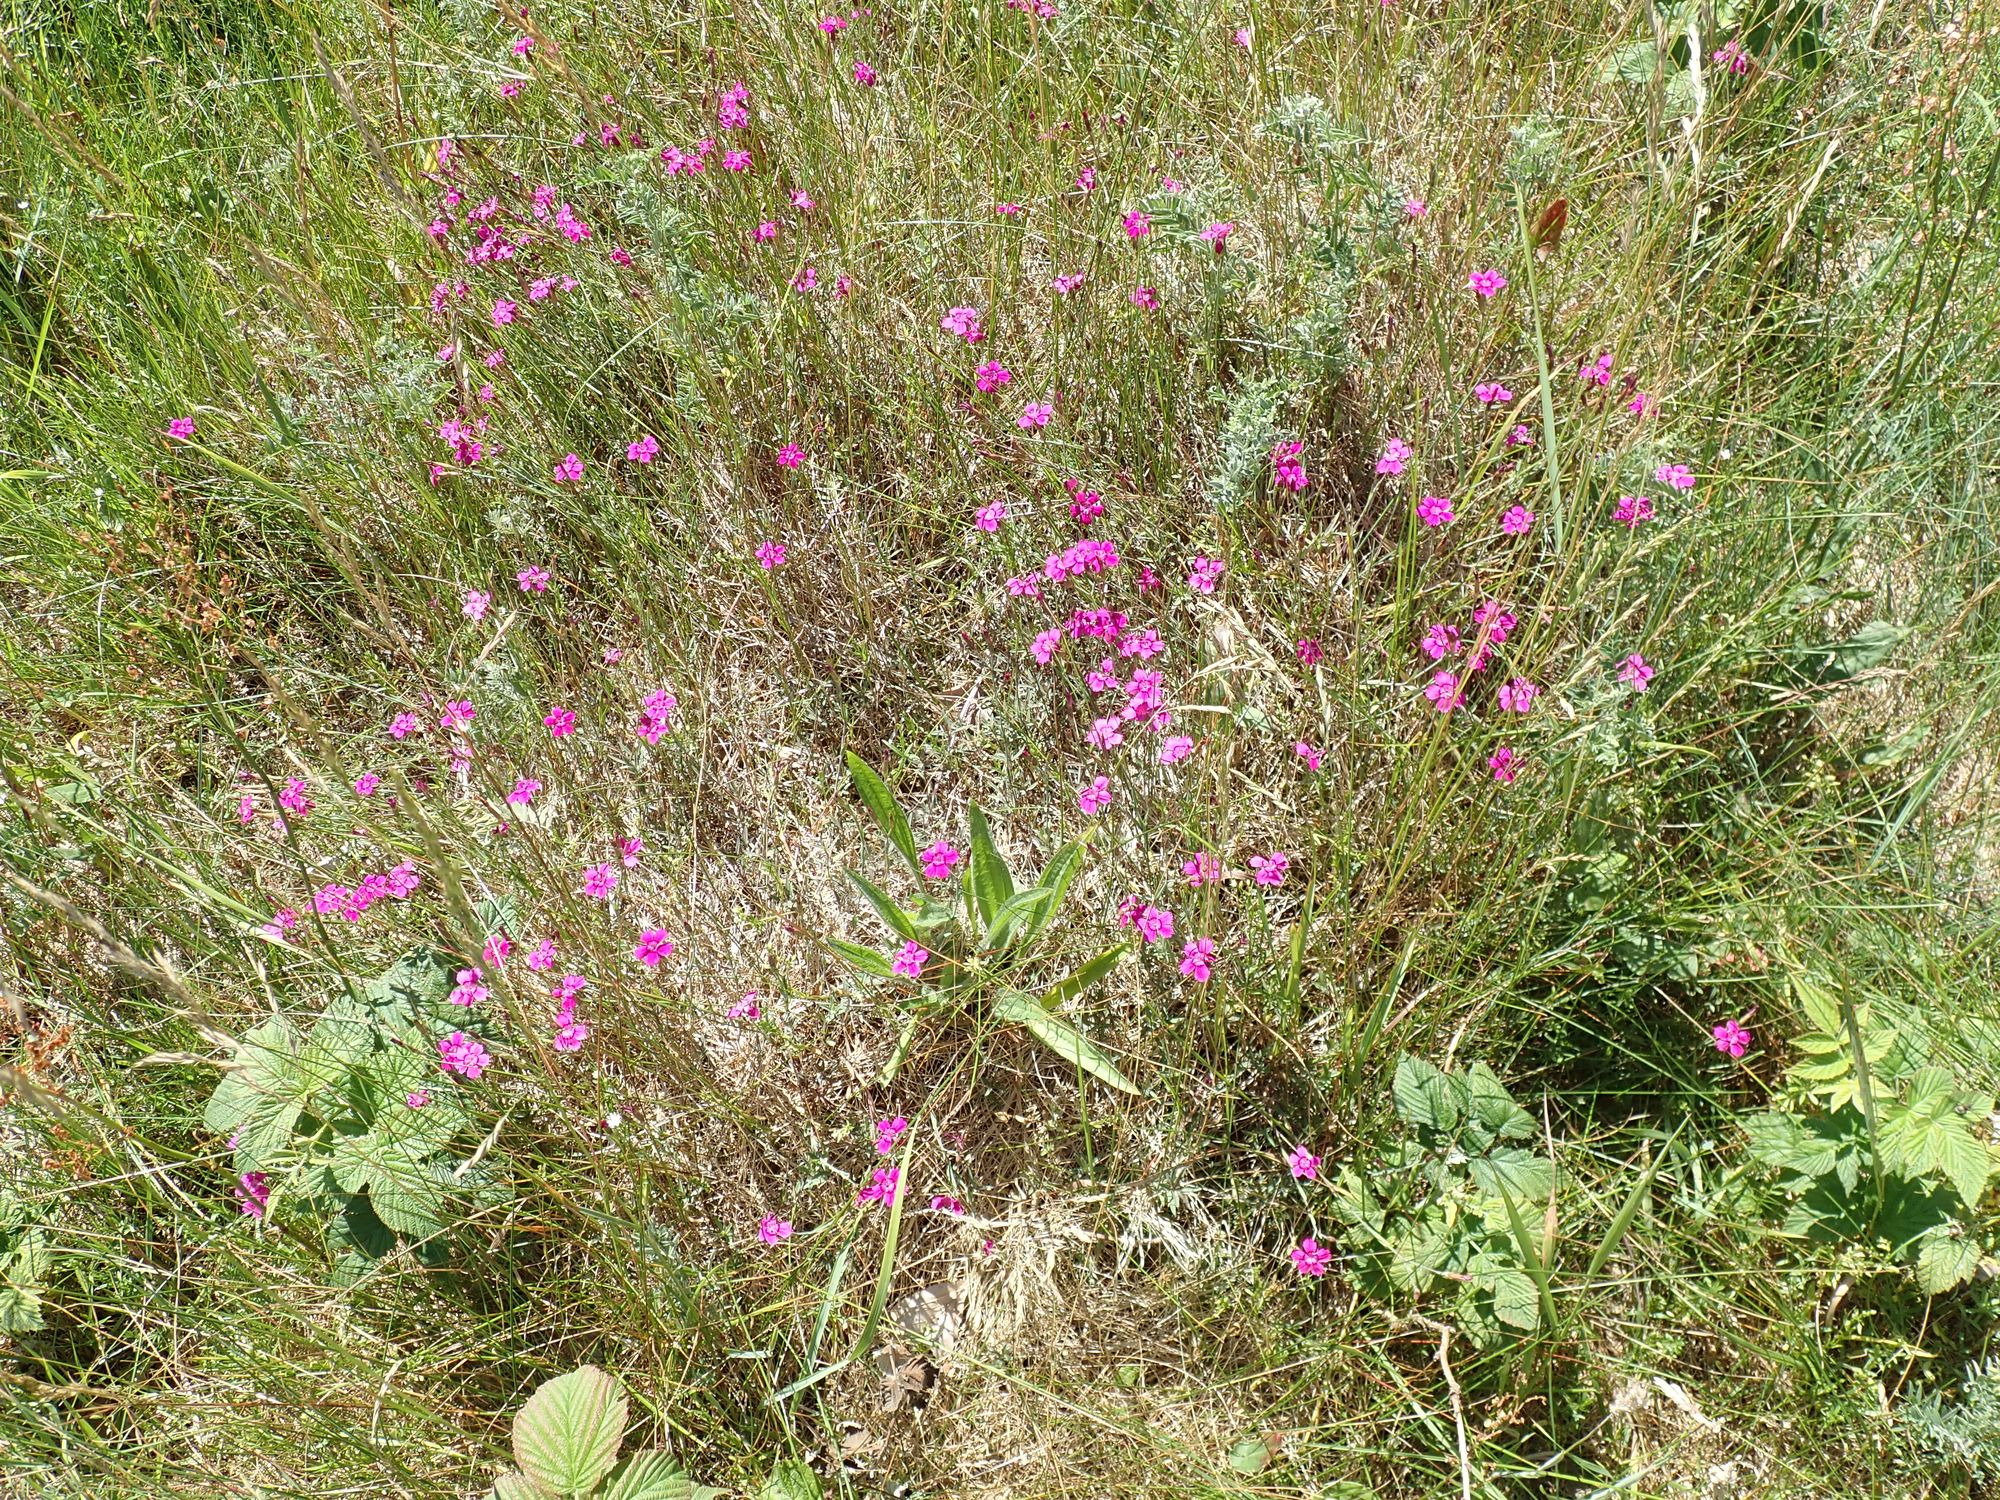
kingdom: Plantae
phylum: Tracheophyta
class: Magnoliopsida
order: Caryophyllales
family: Caryophyllaceae
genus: Dianthus
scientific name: Dianthus deltoides
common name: Bakke-nellike
